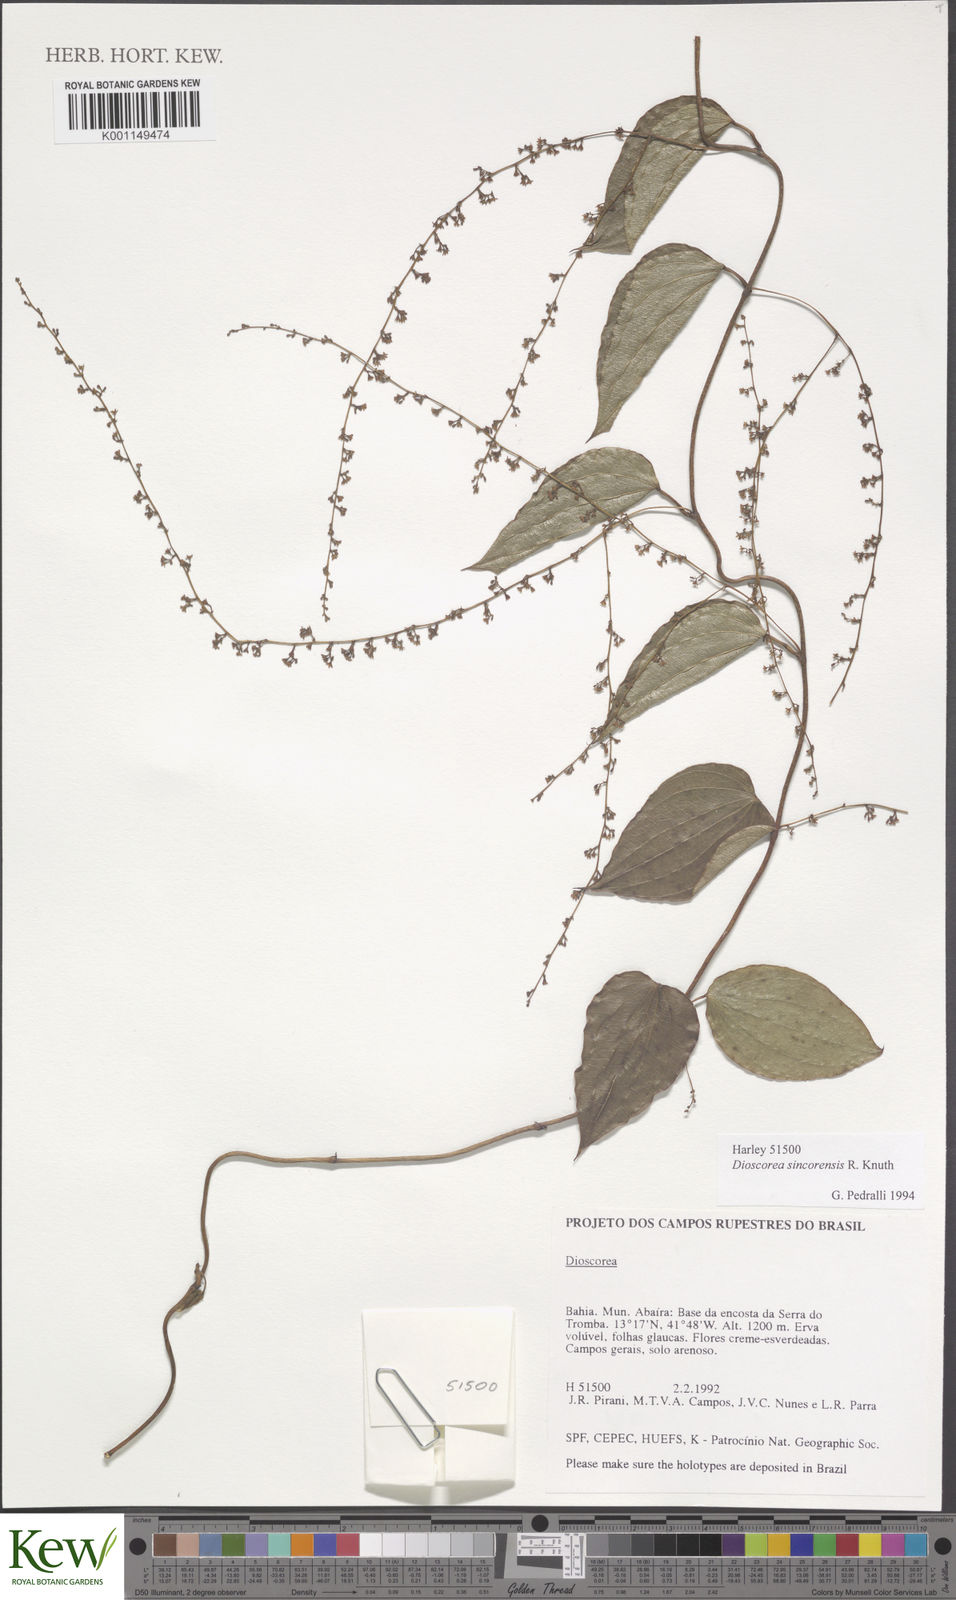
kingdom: Plantae
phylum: Tracheophyta
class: Liliopsida
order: Dioscoreales
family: Dioscoreaceae
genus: Dioscorea
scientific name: Dioscorea sincorensis
